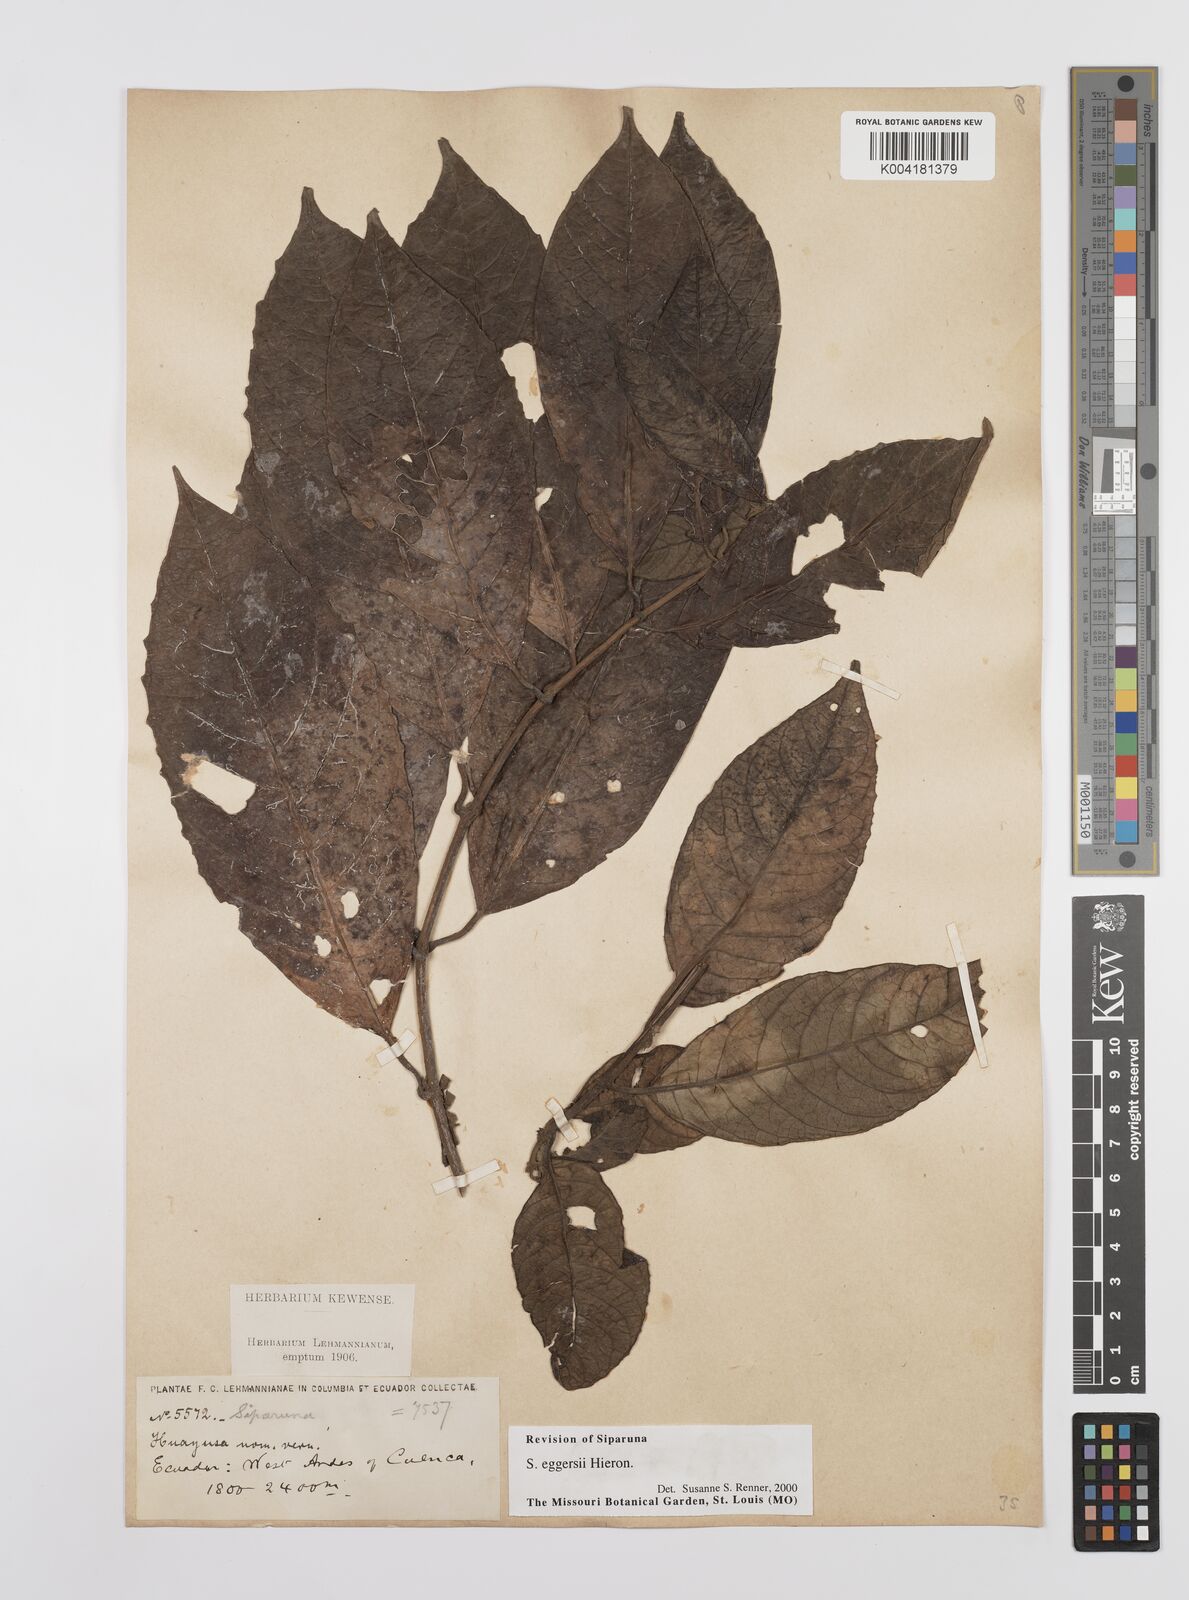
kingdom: Plantae
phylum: Tracheophyta
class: Magnoliopsida
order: Laurales
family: Siparunaceae
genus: Siparuna
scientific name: Siparuna eggersii
